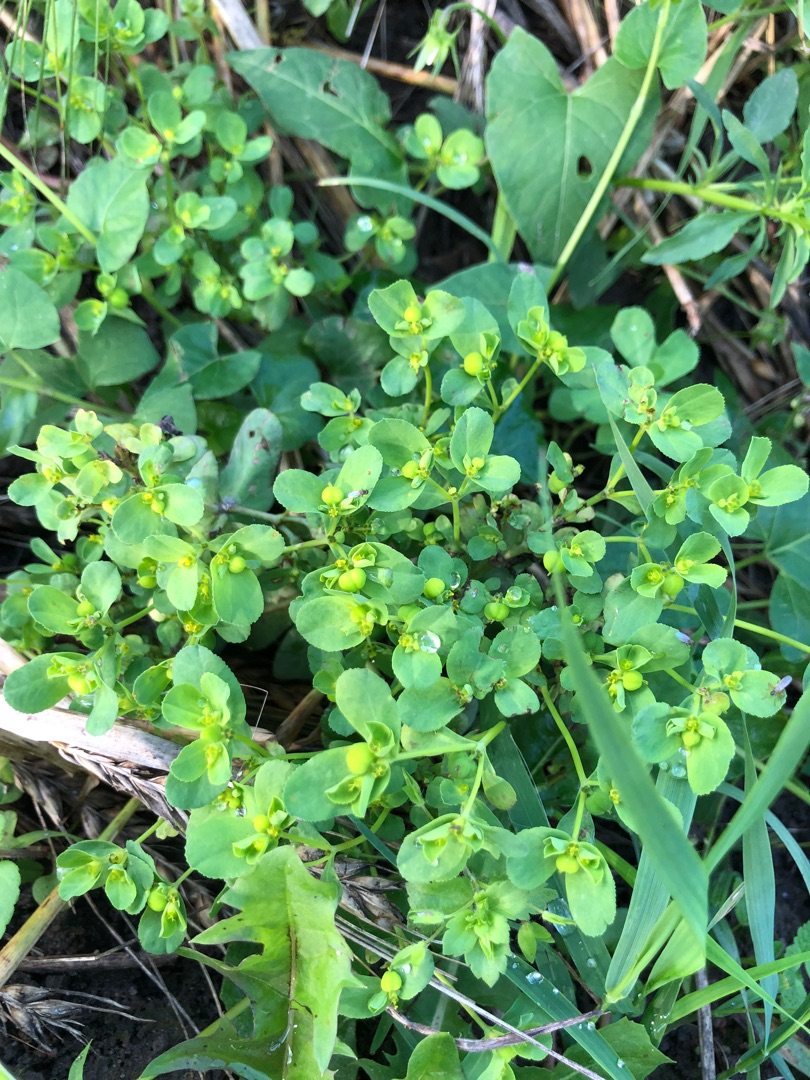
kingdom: Plantae
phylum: Tracheophyta
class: Magnoliopsida
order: Malpighiales
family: Euphorbiaceae
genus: Euphorbia
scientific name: Euphorbia helioscopia
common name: Skærm-vortemælk
